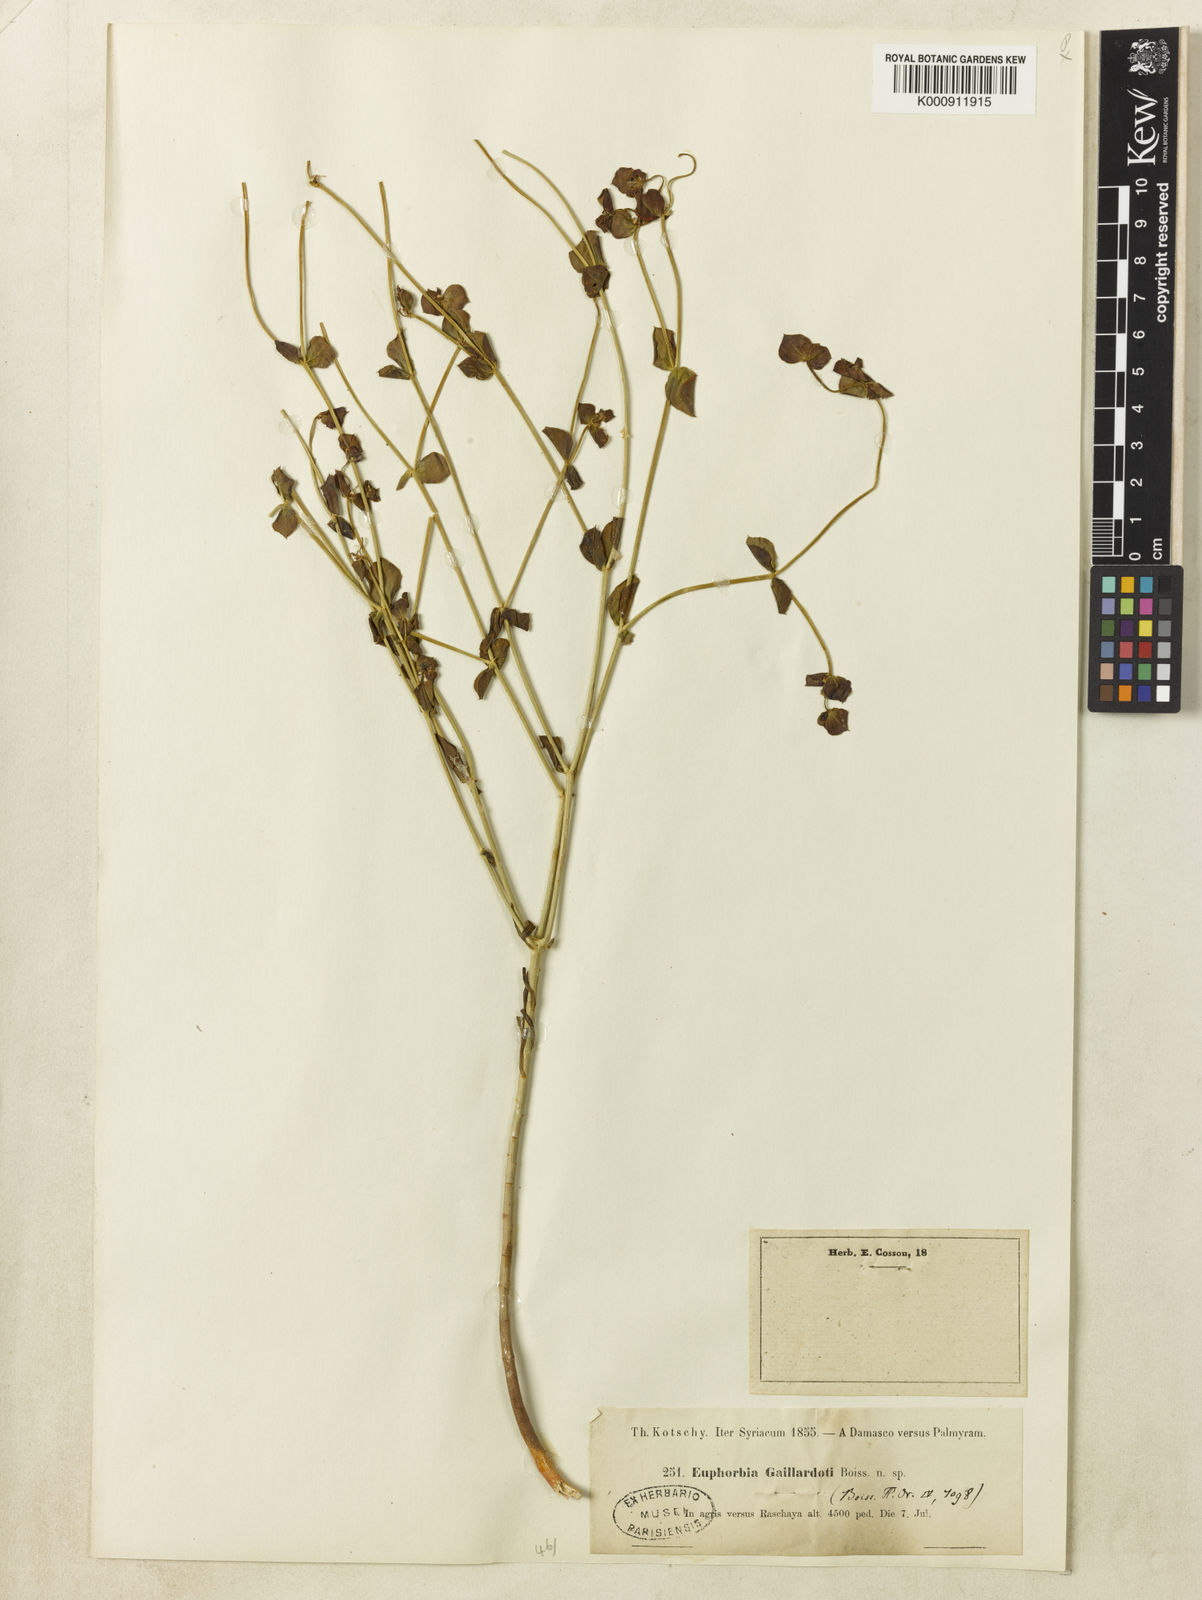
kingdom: Plantae
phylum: Tracheophyta
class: Magnoliopsida
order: Malpighiales
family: Euphorbiaceae
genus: Euphorbia
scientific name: Euphorbia gaillardotii
